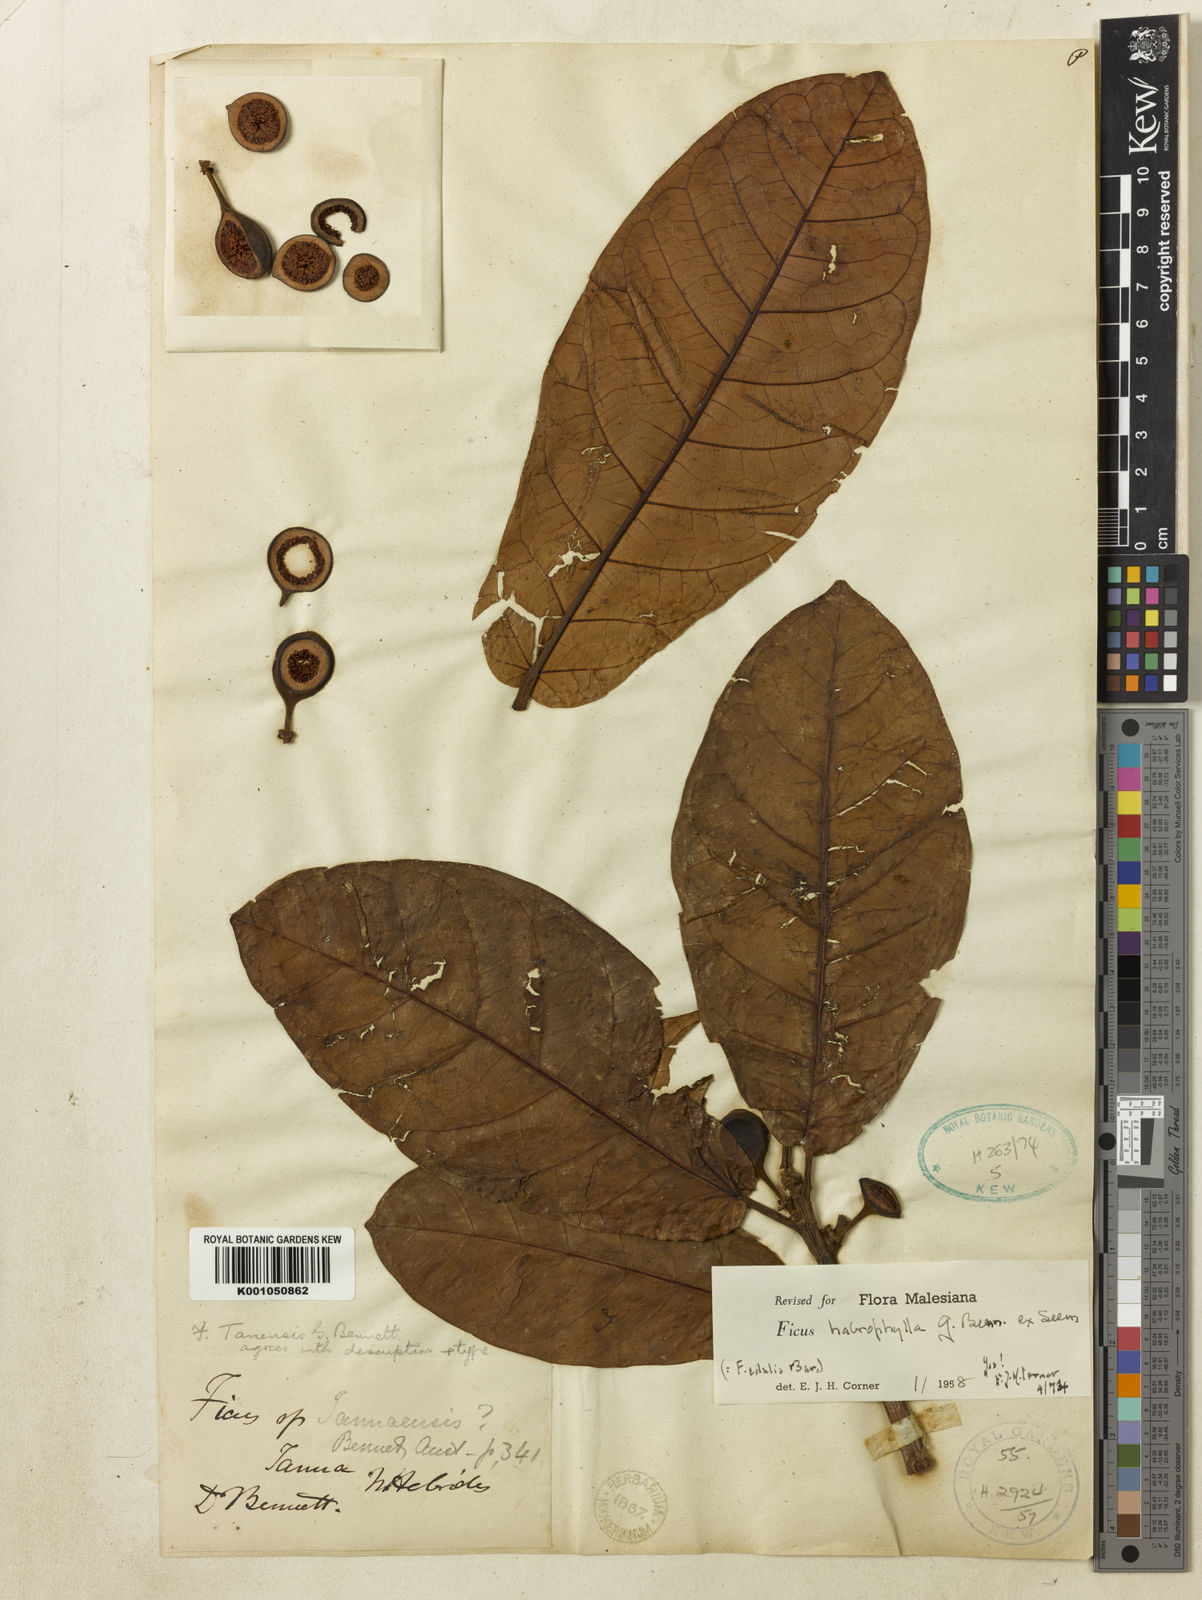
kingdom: Plantae
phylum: Tracheophyta
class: Magnoliopsida
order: Rosales
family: Moraceae
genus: Ficus
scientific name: Ficus habrophylla
